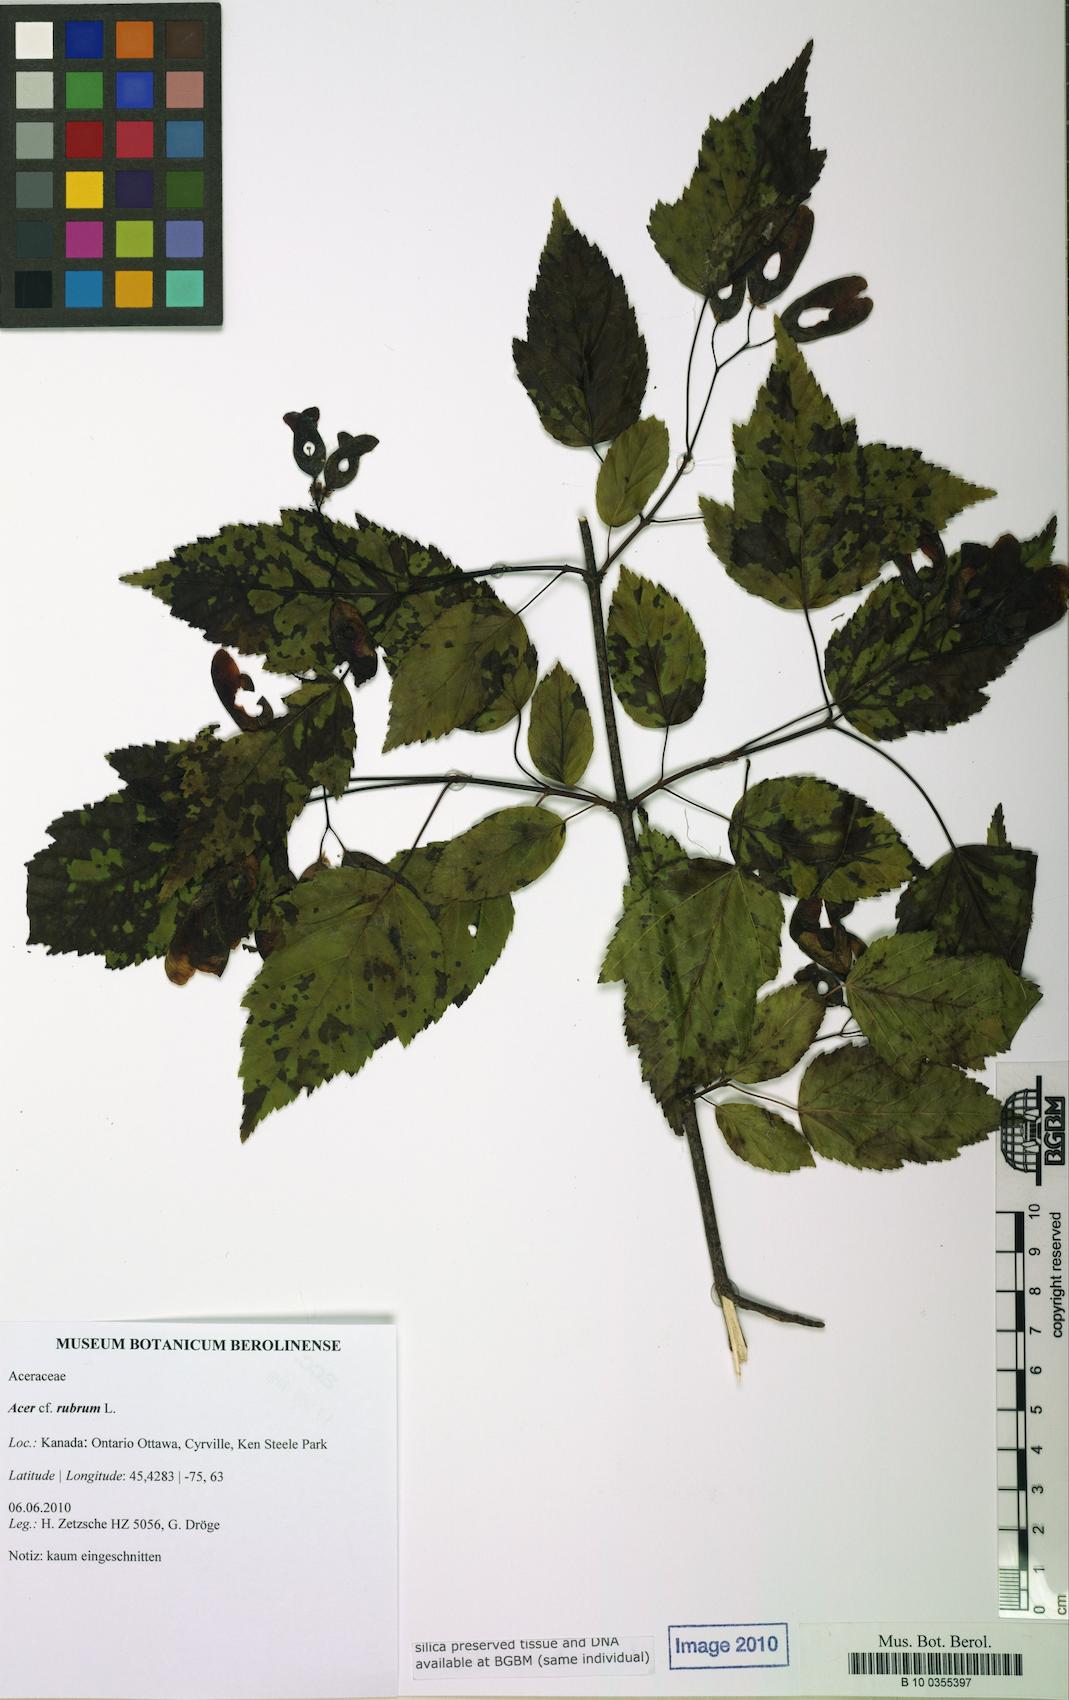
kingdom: Plantae
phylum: Tracheophyta
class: Magnoliopsida
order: Sapindales
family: Sapindaceae
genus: Acer
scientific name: Acer rubrum
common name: Red maple
